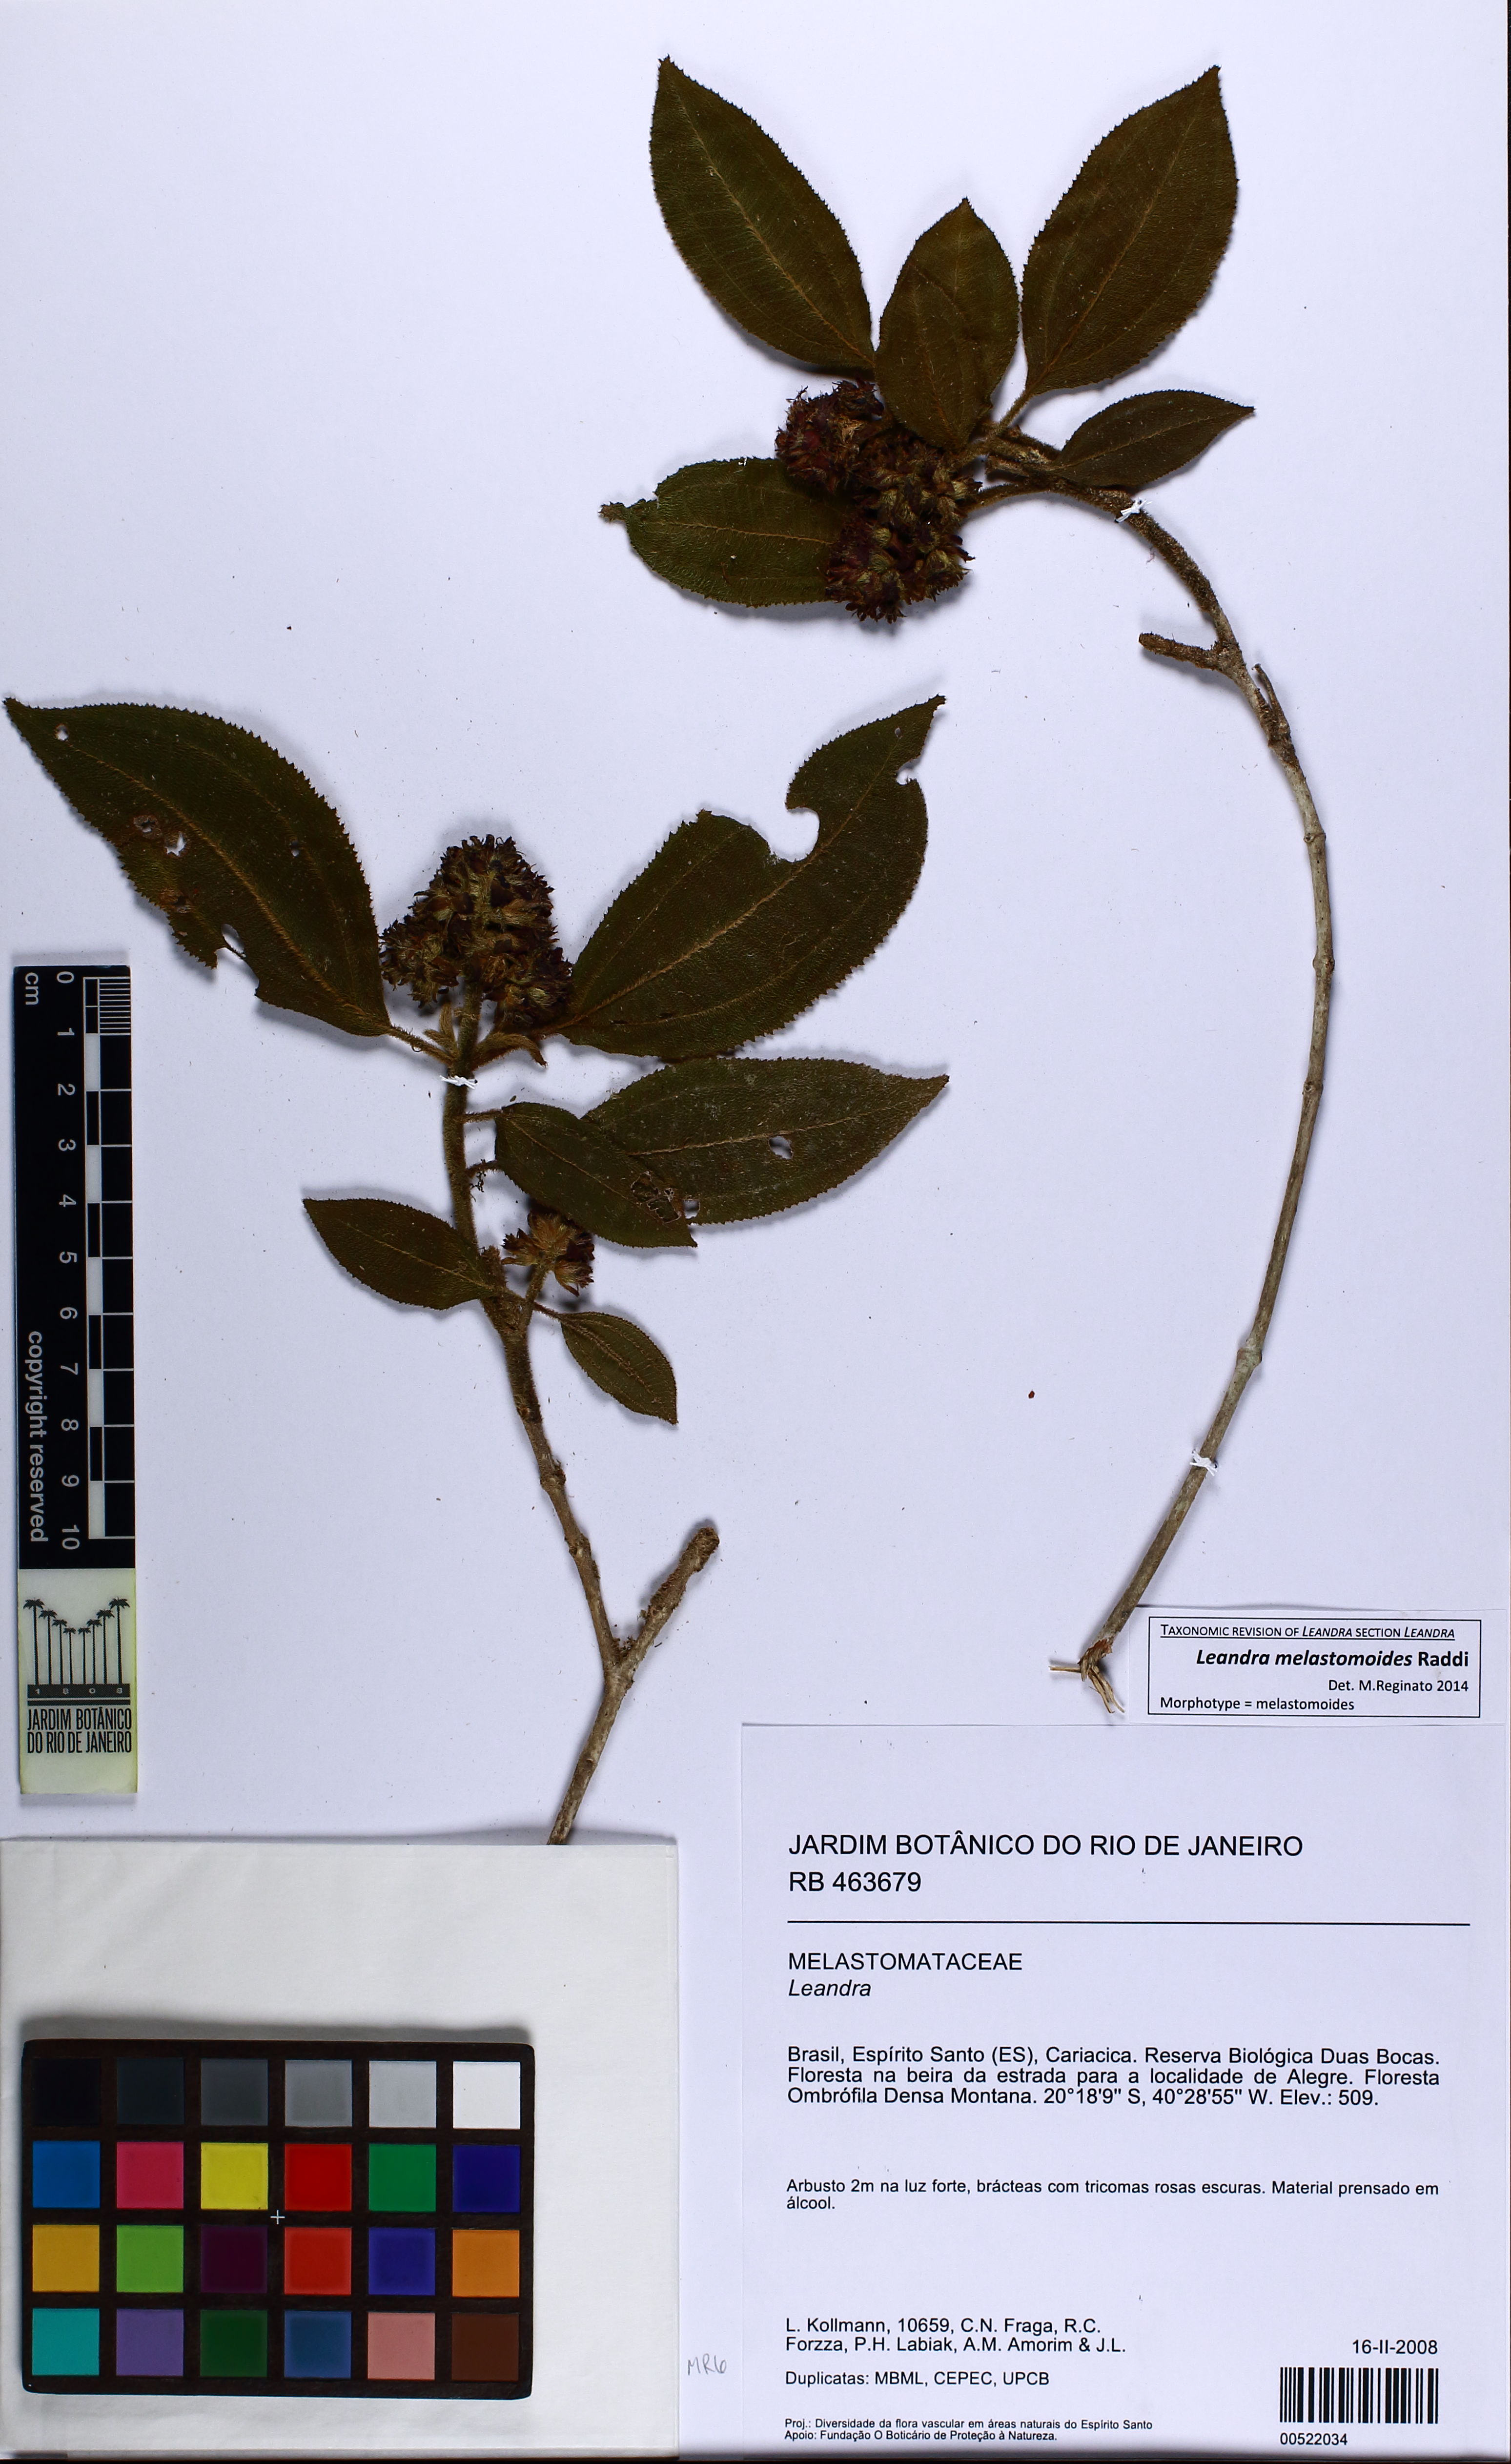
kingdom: Plantae
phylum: Tracheophyta
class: Magnoliopsida
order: Myrtales
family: Melastomataceae
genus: Miconia
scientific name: Miconia melastomoides
